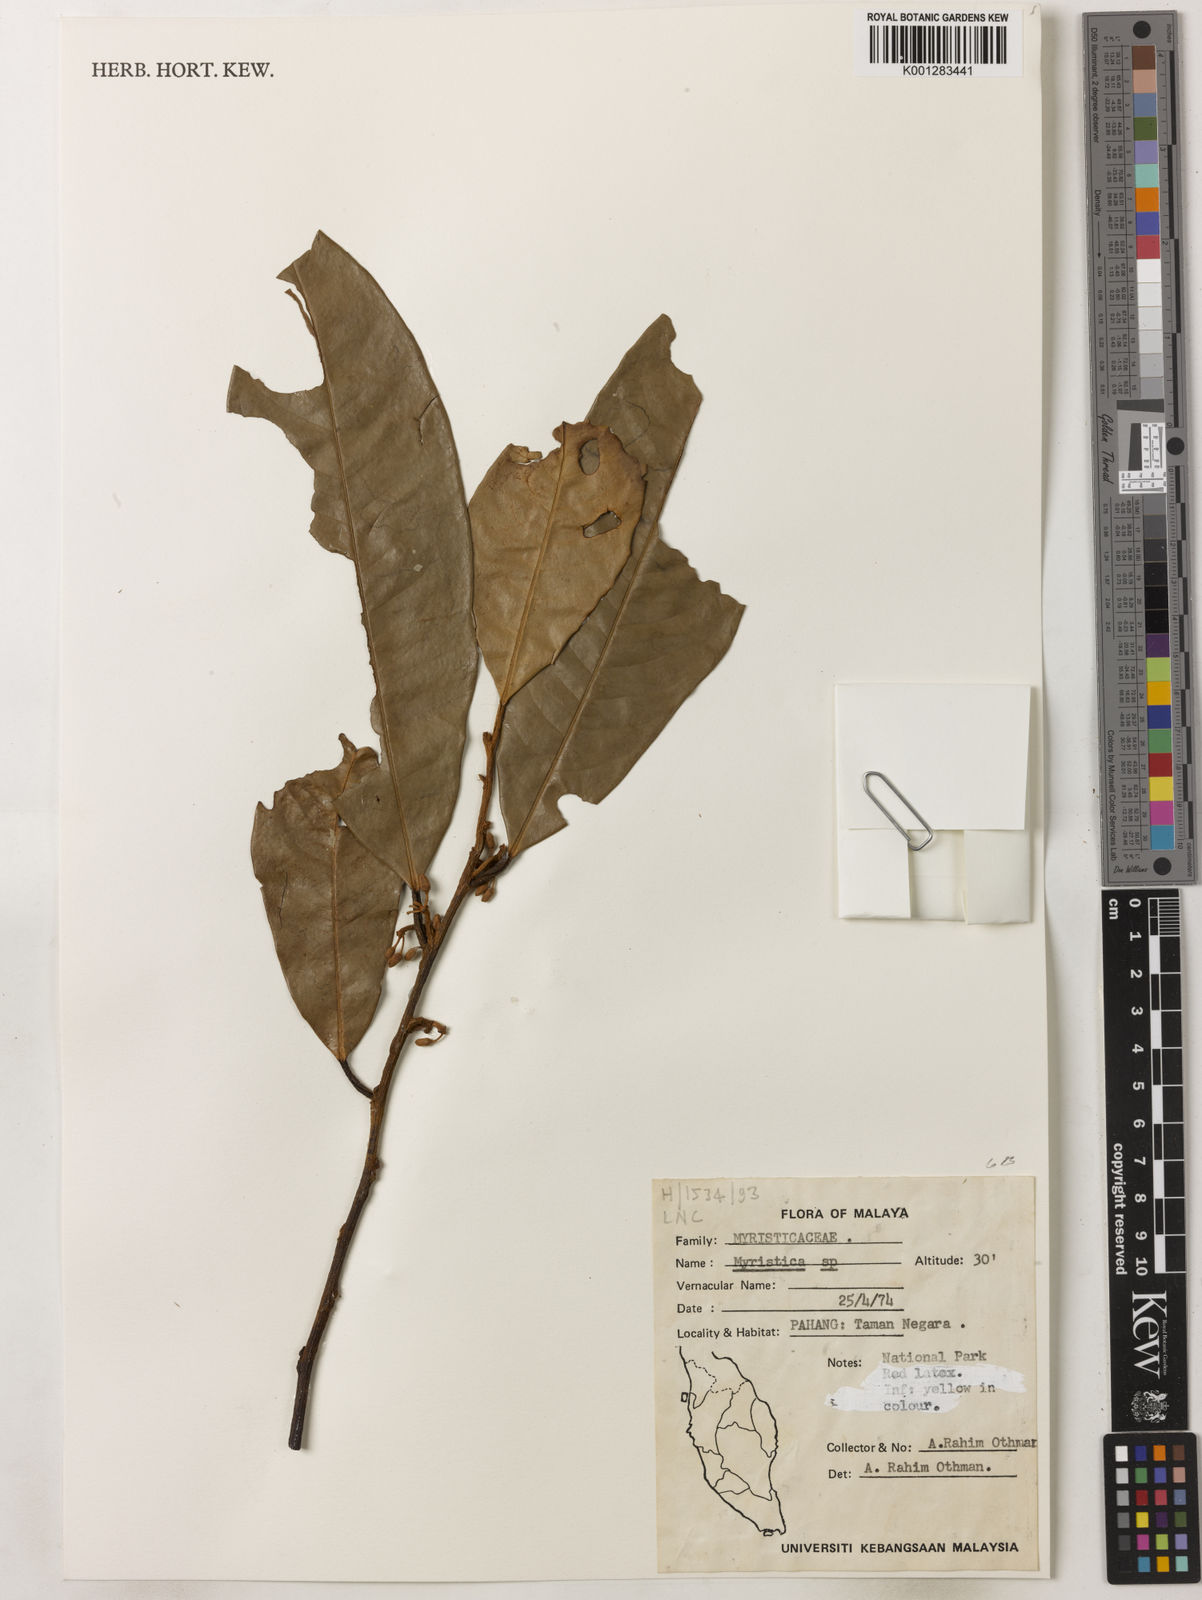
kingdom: Plantae
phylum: Tracheophyta
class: Magnoliopsida
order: Magnoliales
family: Myristicaceae
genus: Myristica
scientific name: Myristica
